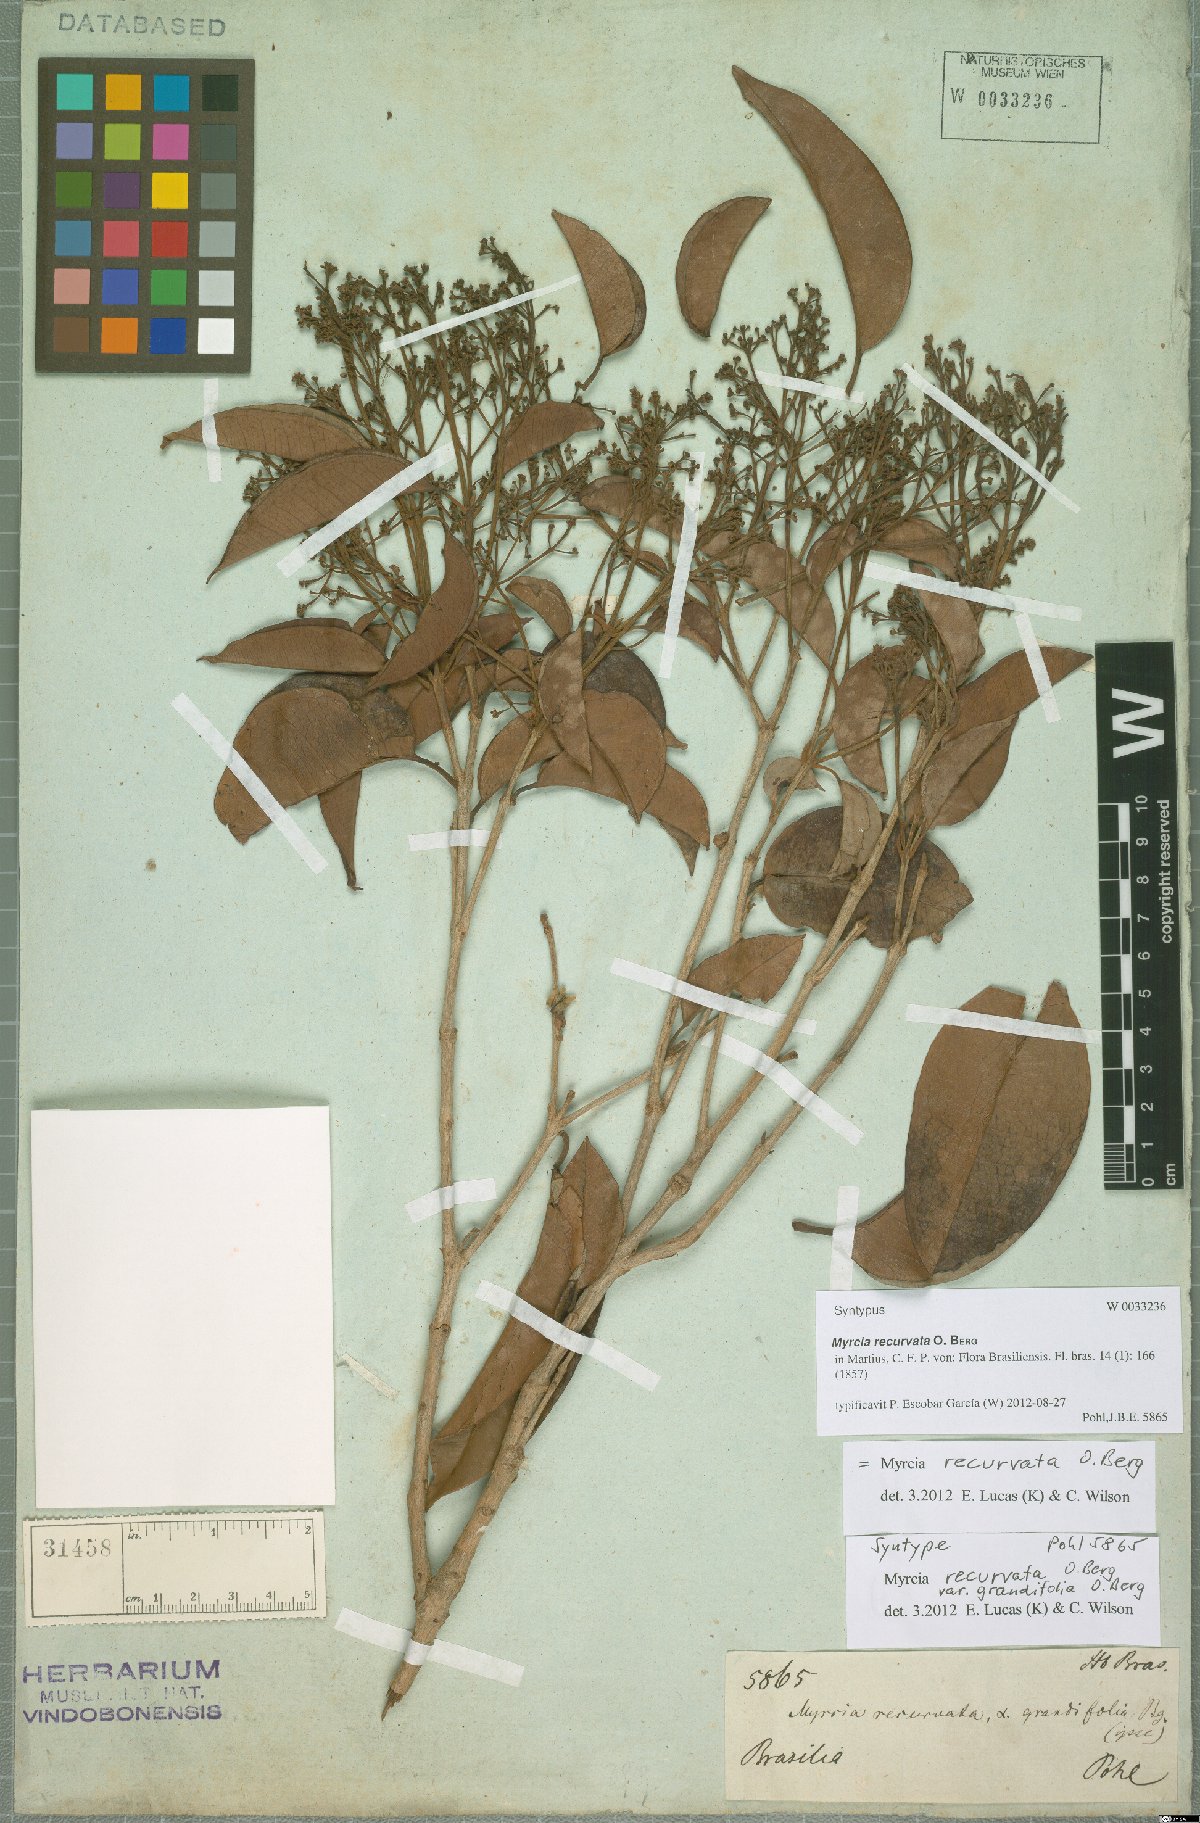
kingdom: Plantae
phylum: Tracheophyta
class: Magnoliopsida
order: Myrtales
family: Myrtaceae
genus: Myrcia
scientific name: Myrcia recurvata
